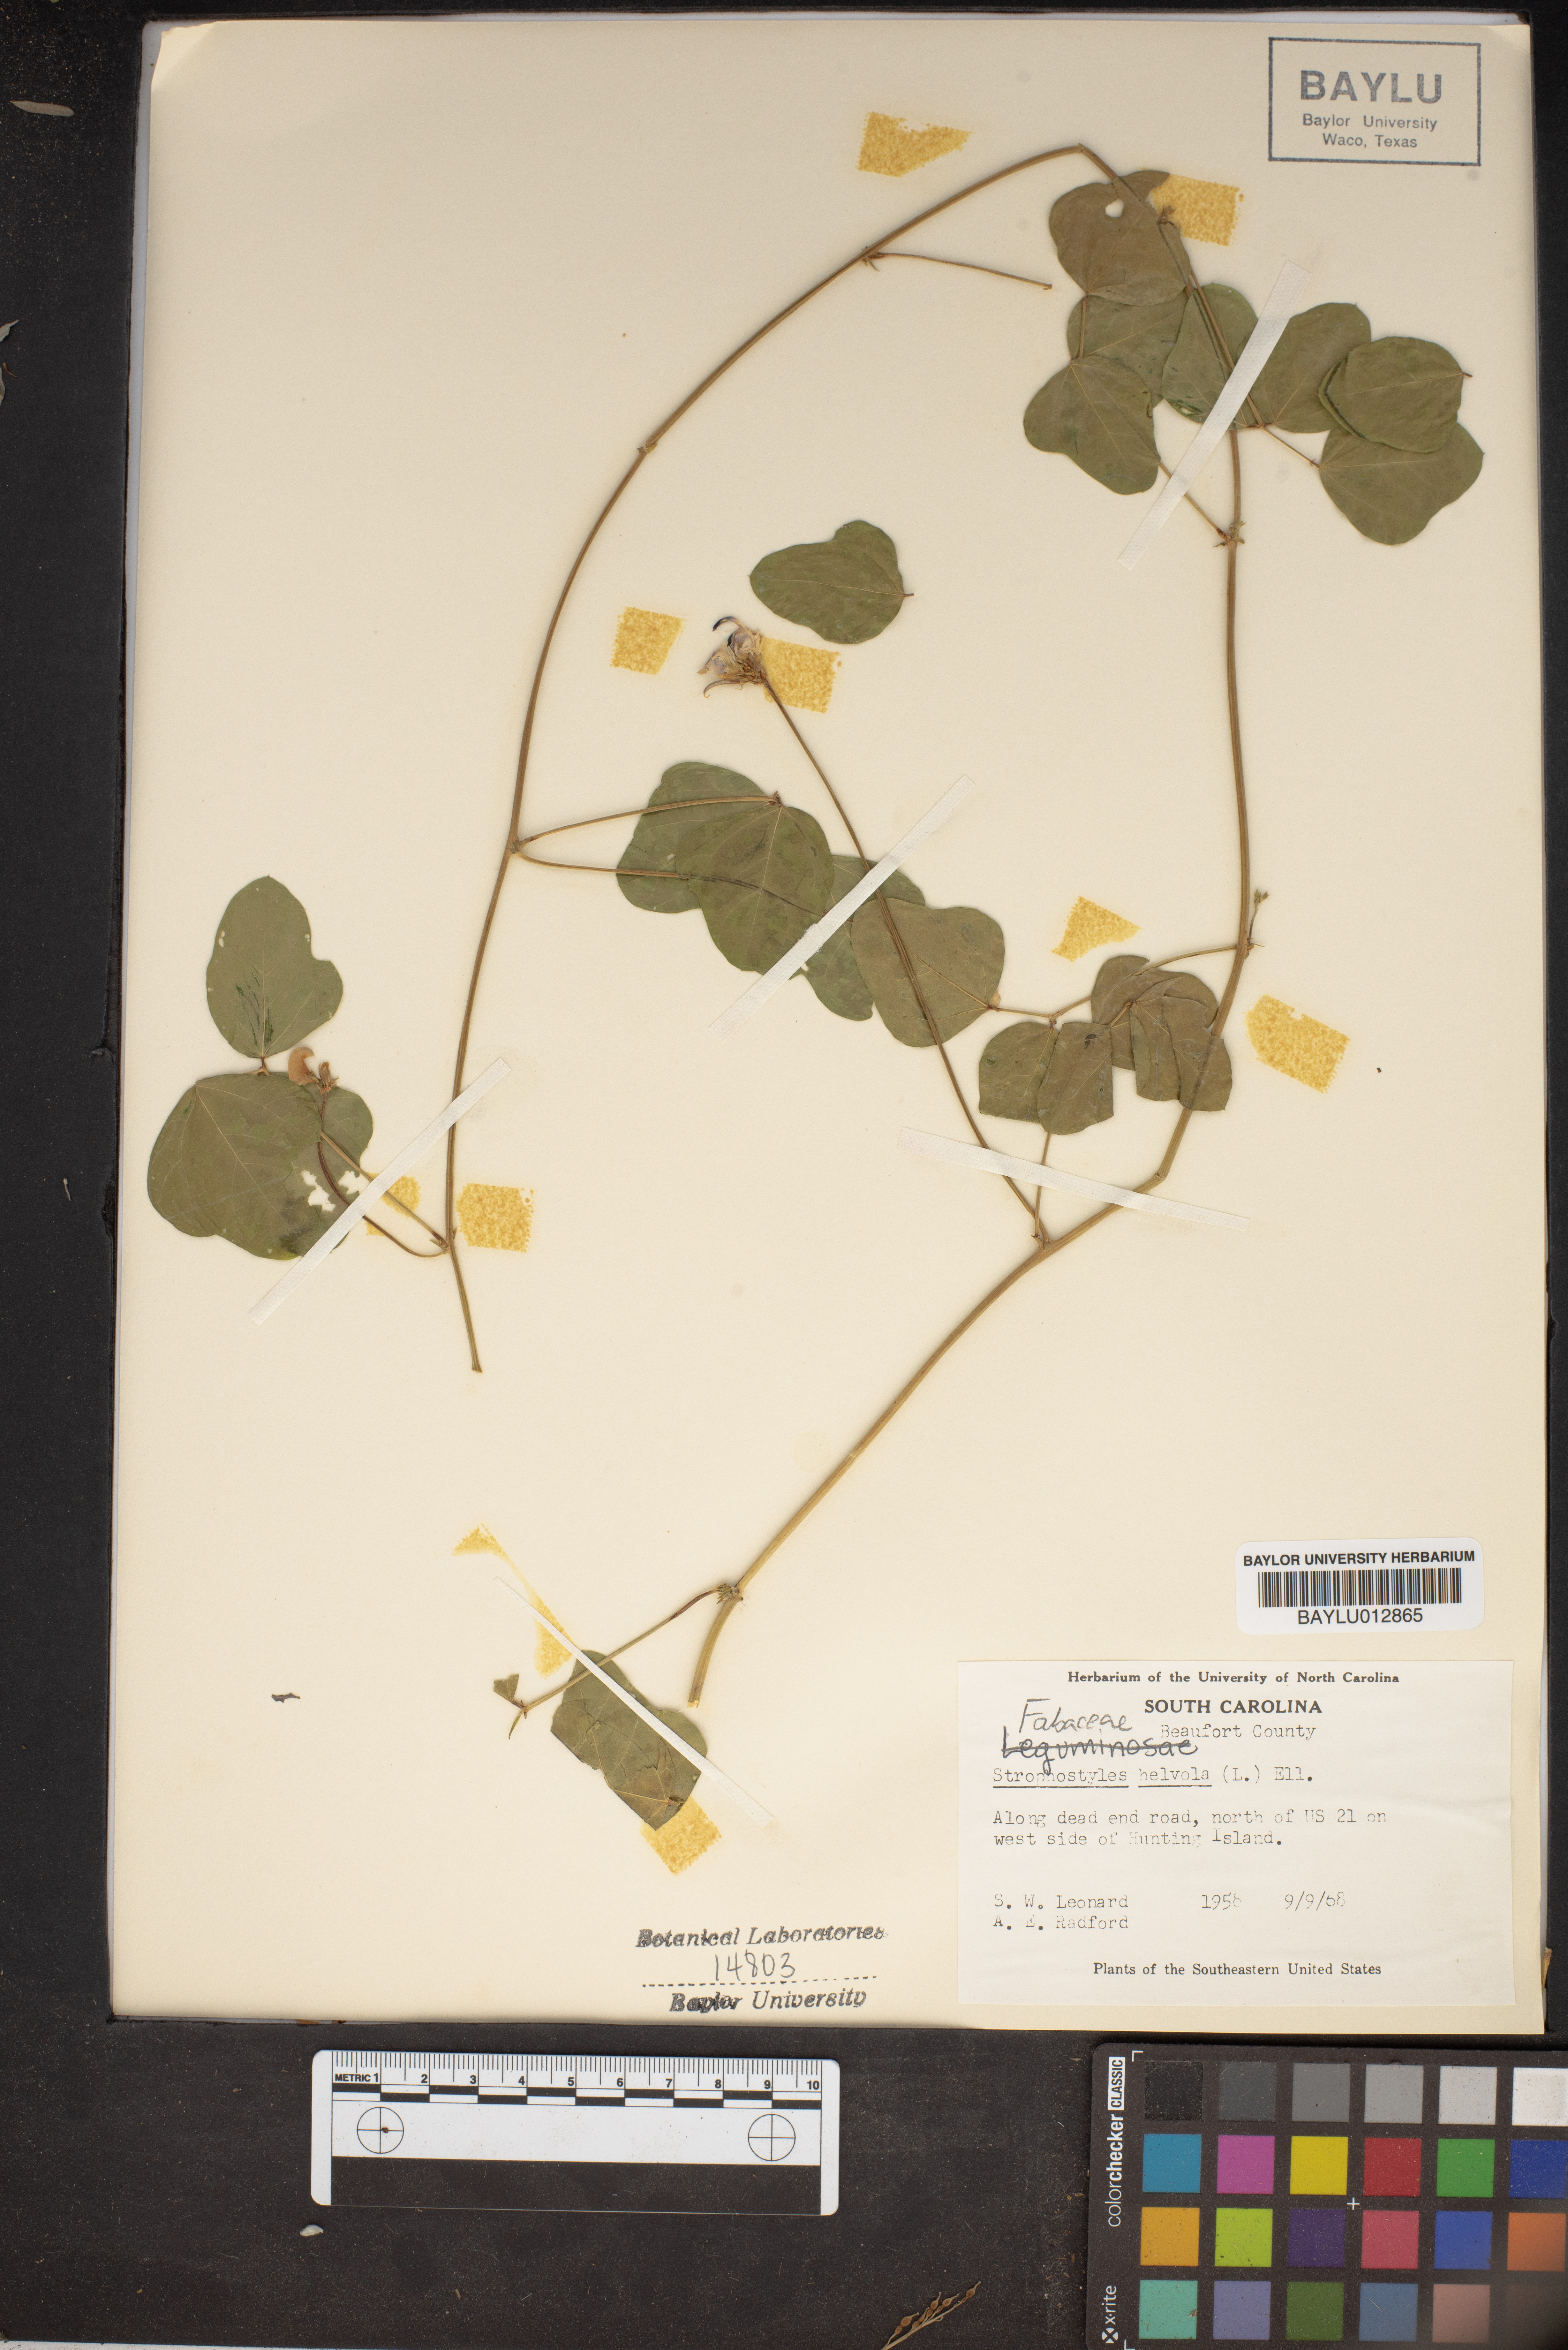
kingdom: Plantae
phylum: Tracheophyta
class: Magnoliopsida
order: Fabales
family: Fabaceae
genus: Strophostyles
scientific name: Strophostyles helvola
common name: Trailing wild bean
